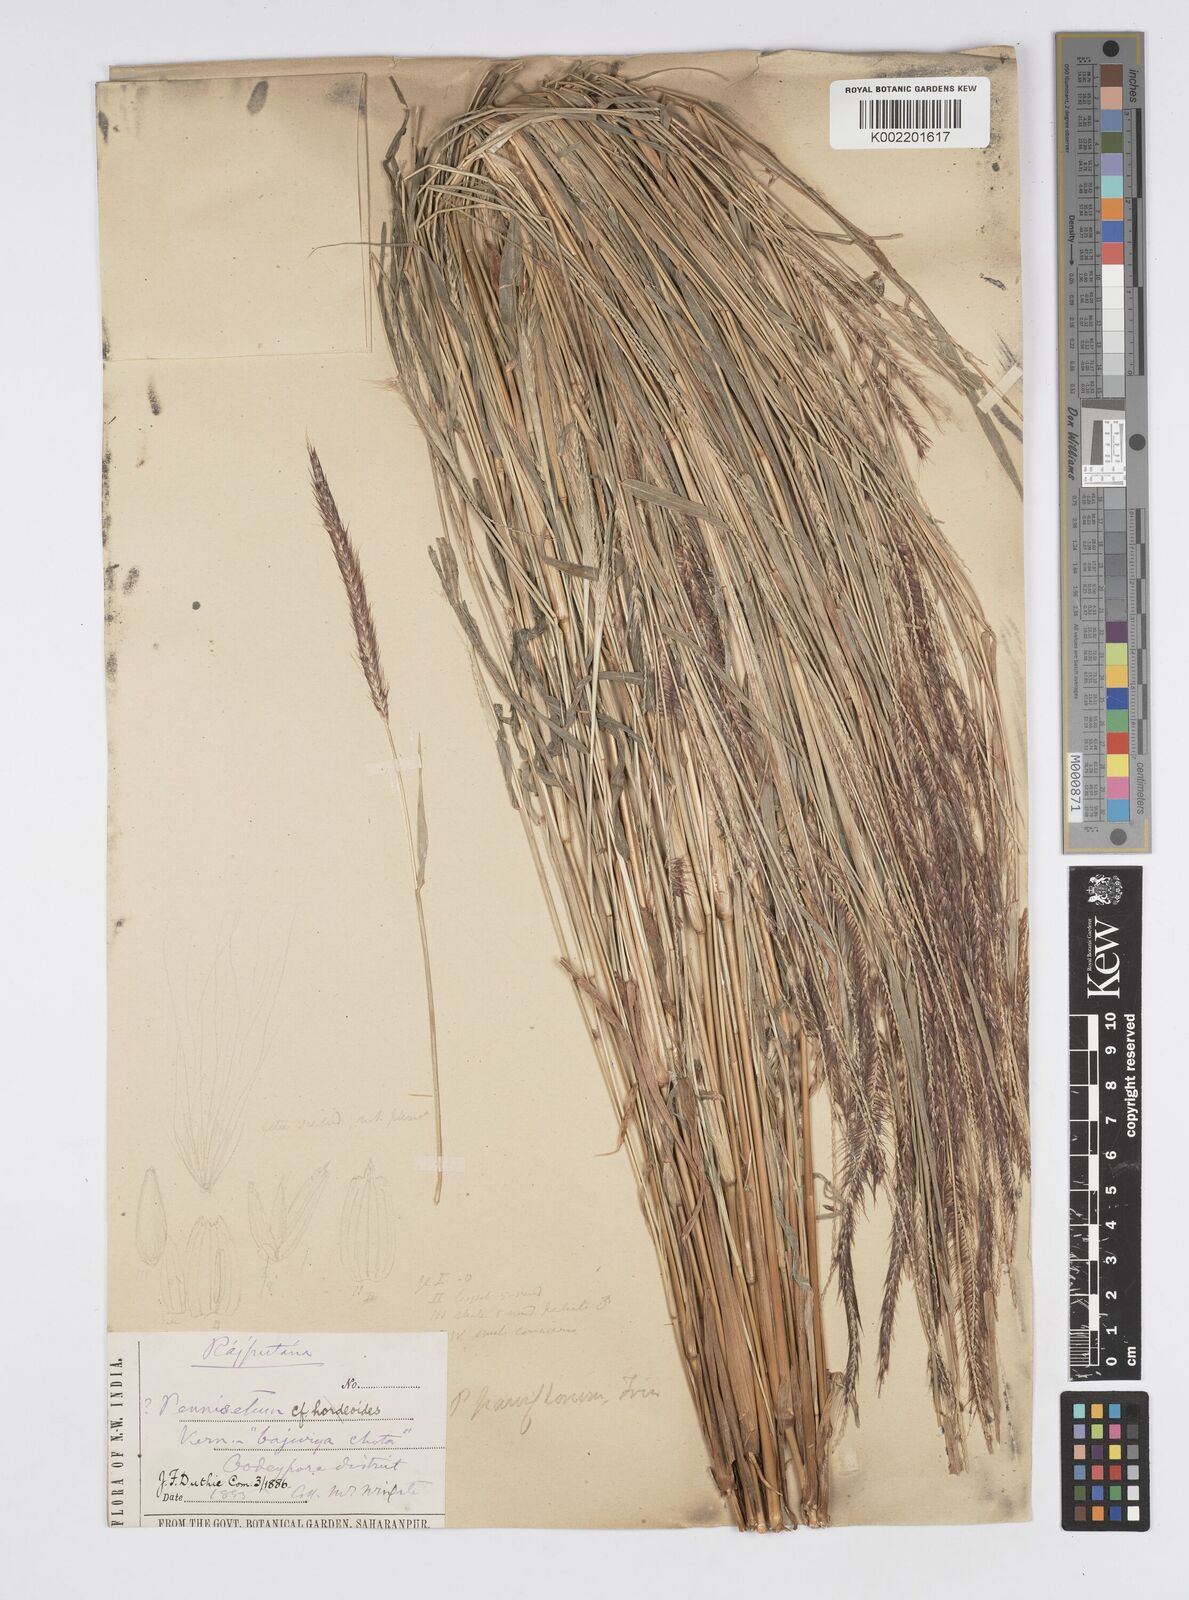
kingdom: Plantae
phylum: Tracheophyta
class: Liliopsida
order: Poales
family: Poaceae
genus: Cenchrus
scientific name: Cenchrus hordeoides
